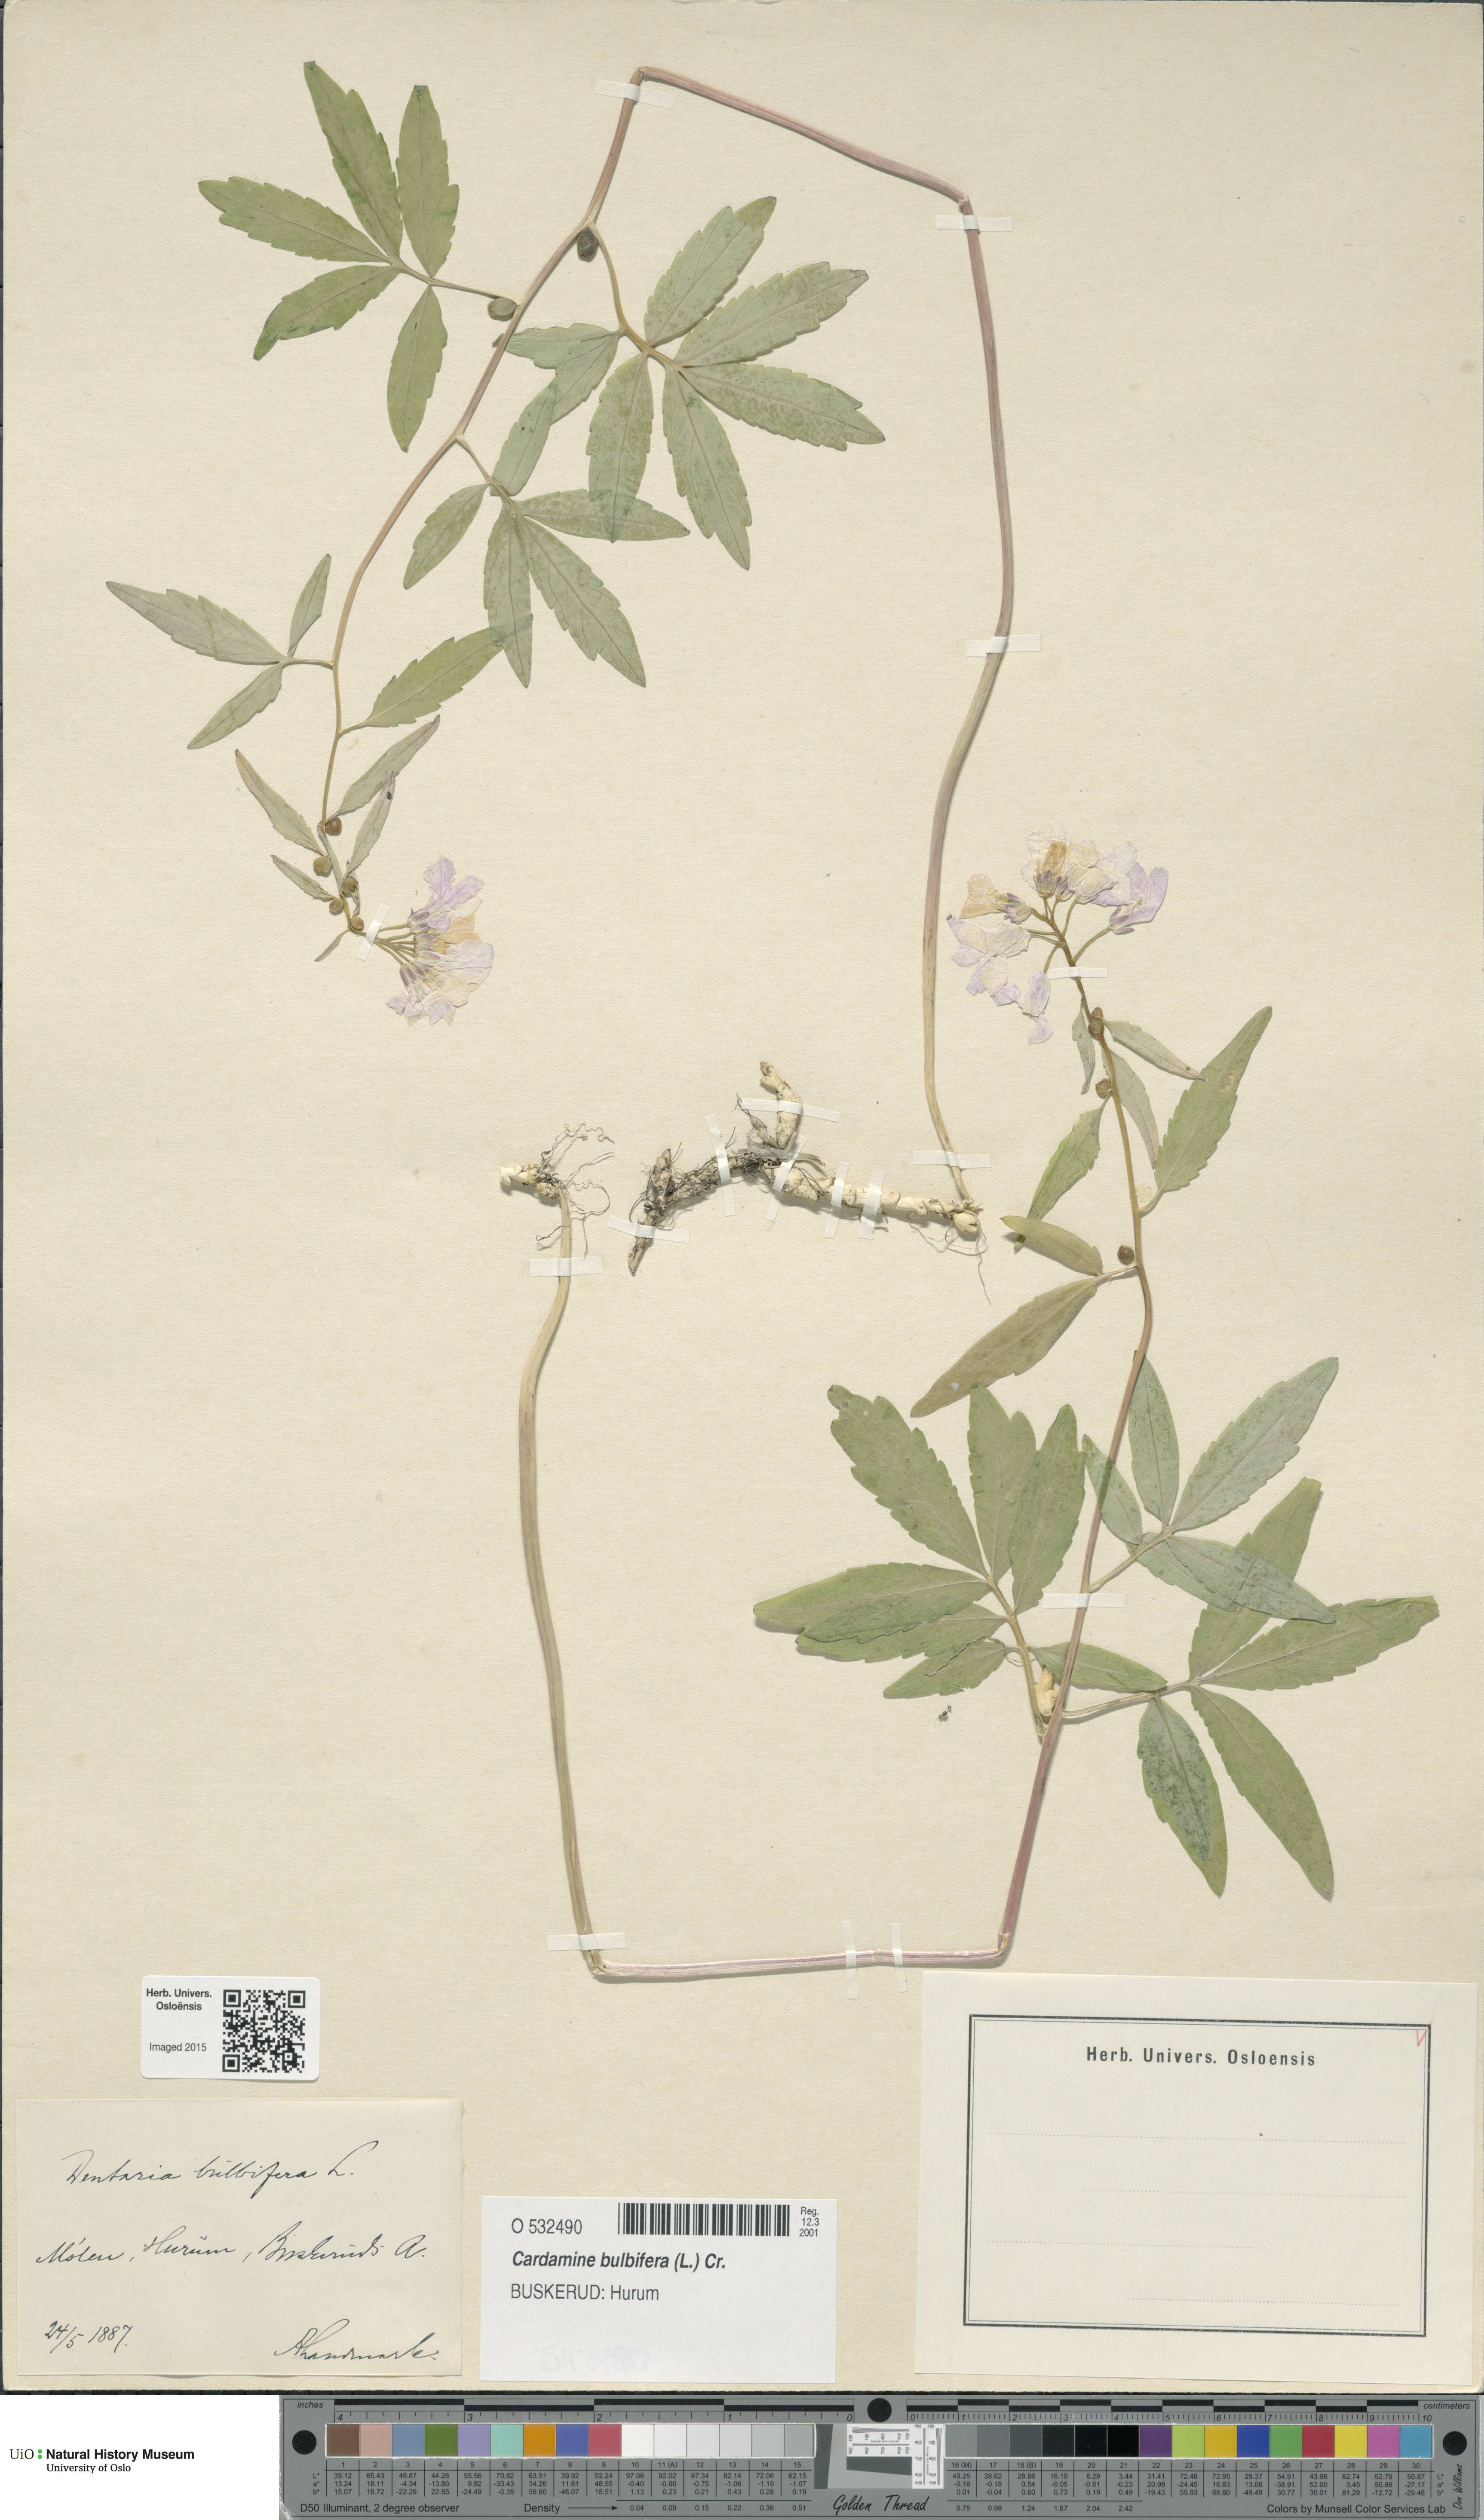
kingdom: Plantae
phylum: Tracheophyta
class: Magnoliopsida
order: Brassicales
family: Brassicaceae
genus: Cardamine
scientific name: Cardamine bulbifera
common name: Coralroot bittercress
